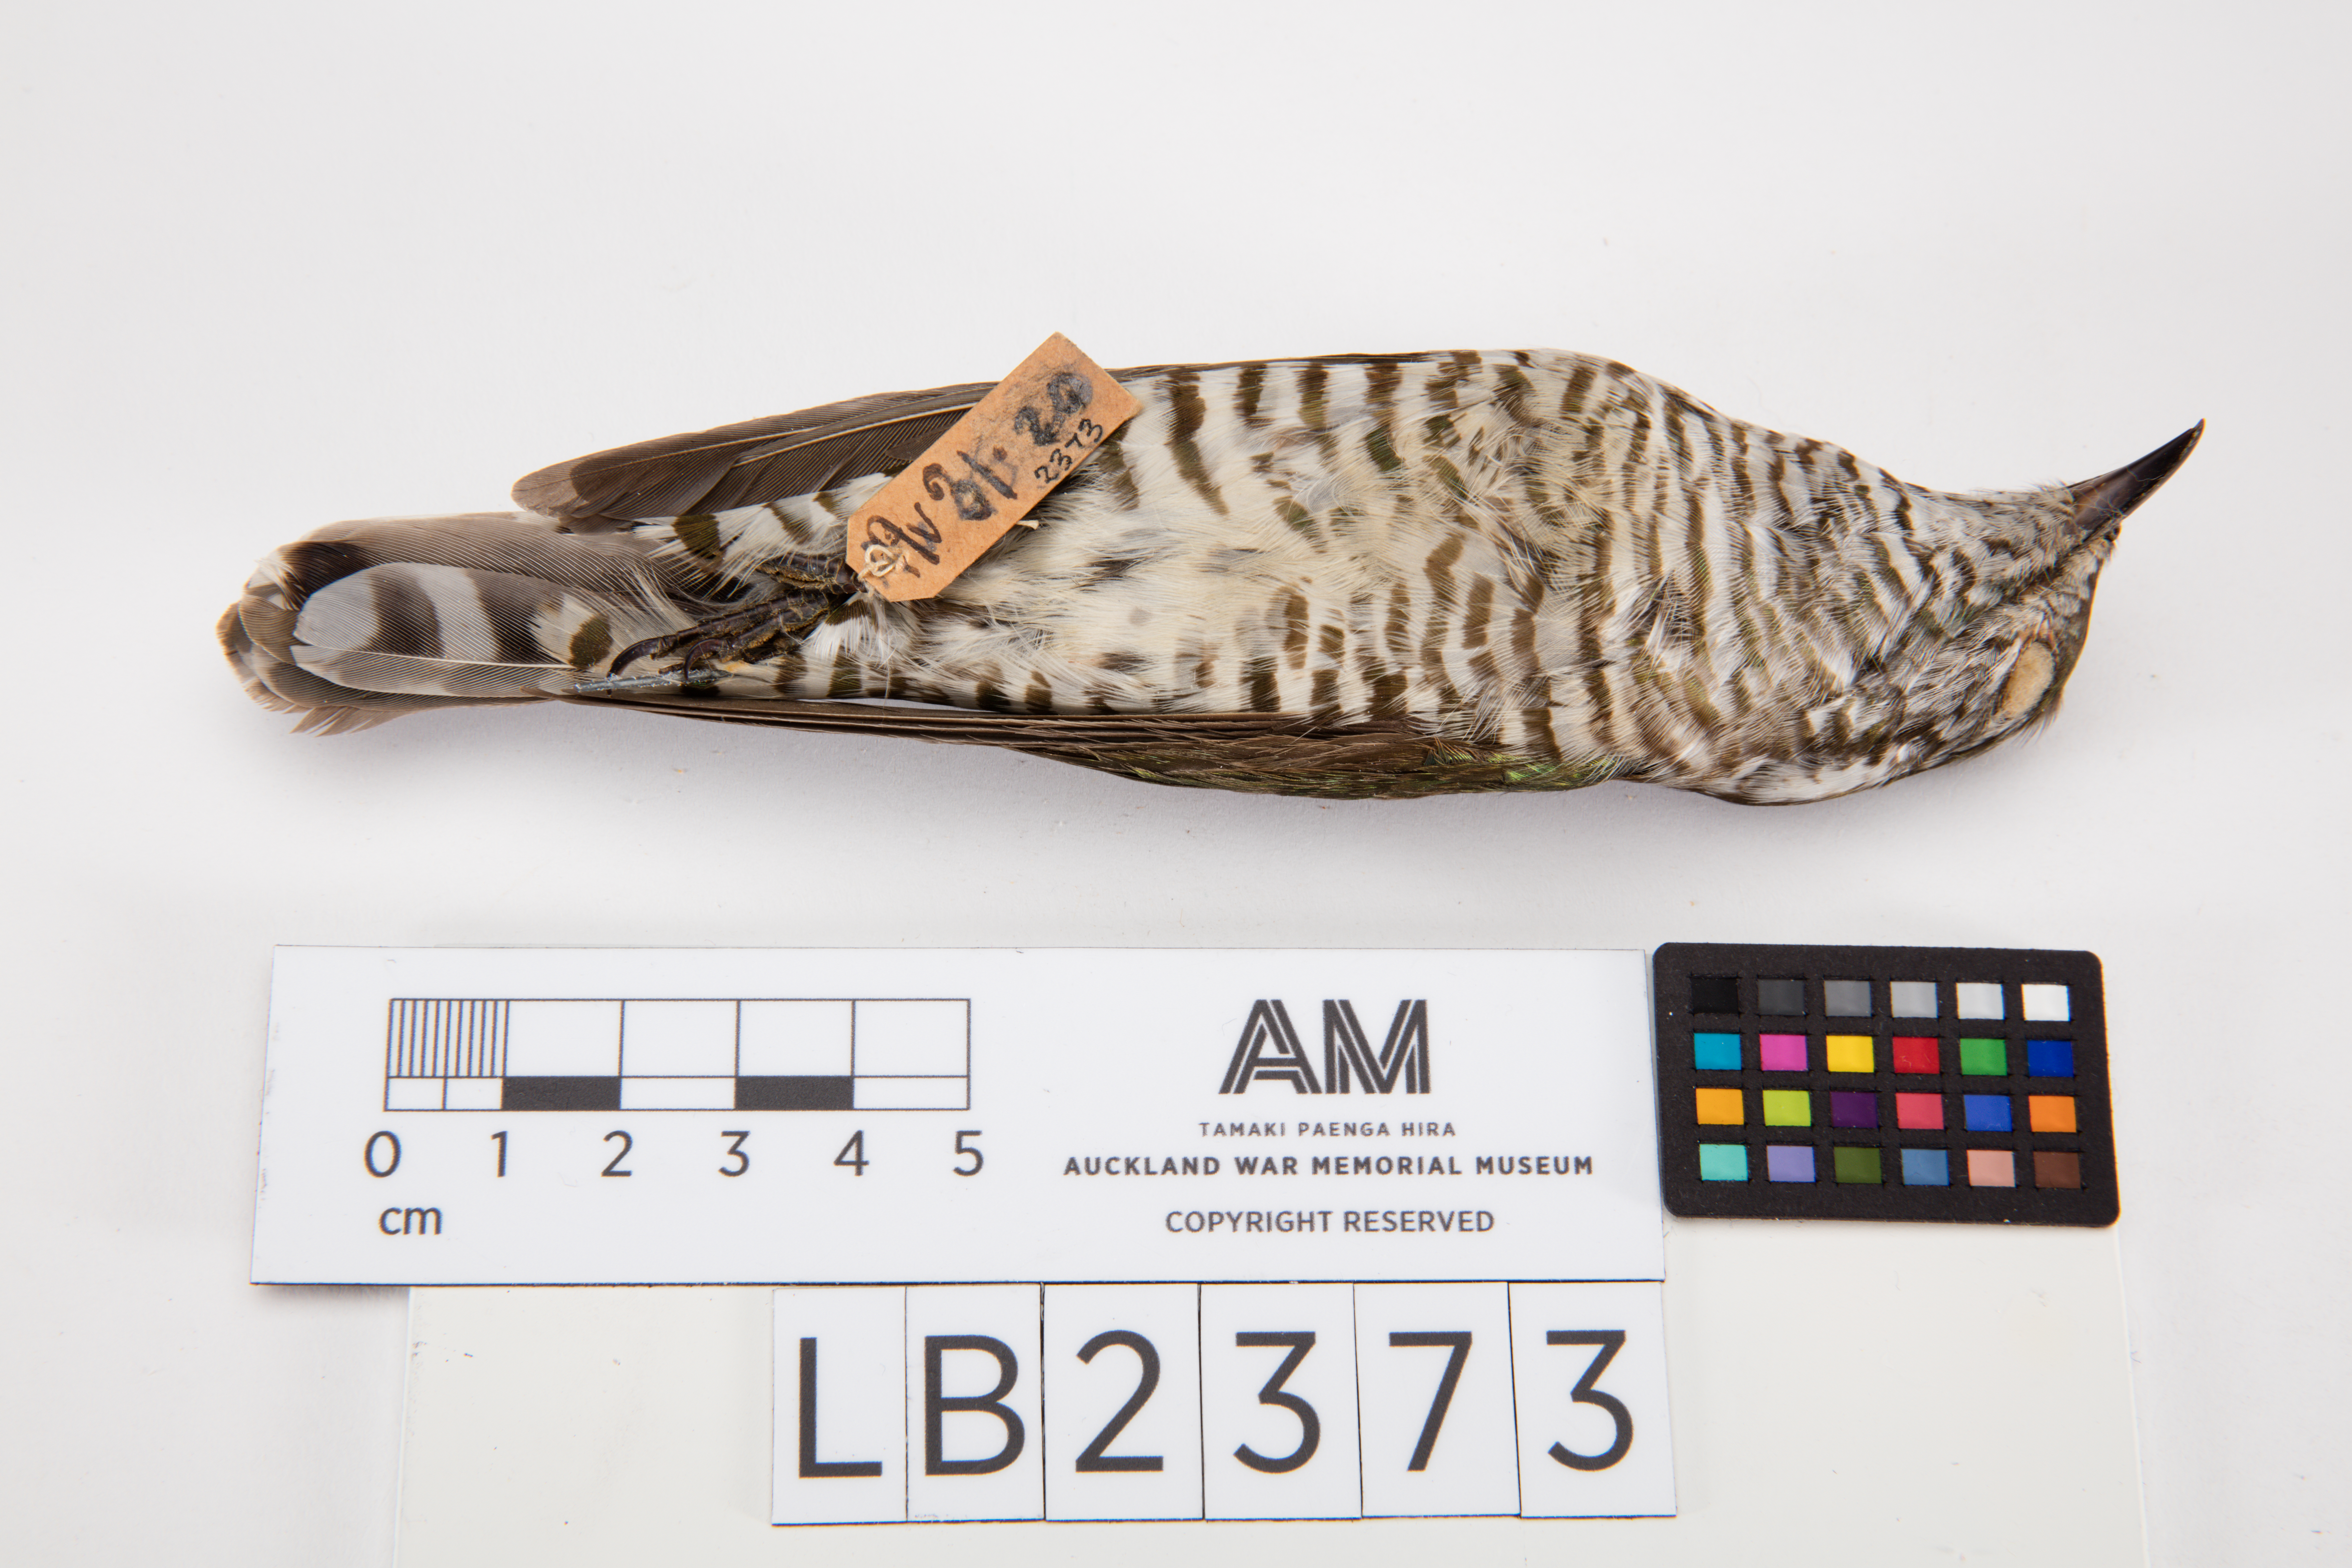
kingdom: Animalia
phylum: Chordata
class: Aves
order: Cuculiformes
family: Cuculidae
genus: Chrysococcyx
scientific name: Chrysococcyx lucidus
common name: Shining bronze cuckoo
